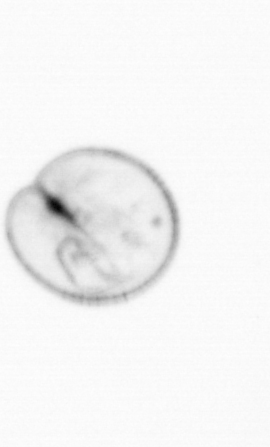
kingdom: Chromista
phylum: Myzozoa
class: Dinophyceae
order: Noctilucales
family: Noctilucaceae
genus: Noctiluca
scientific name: Noctiluca scintillans
